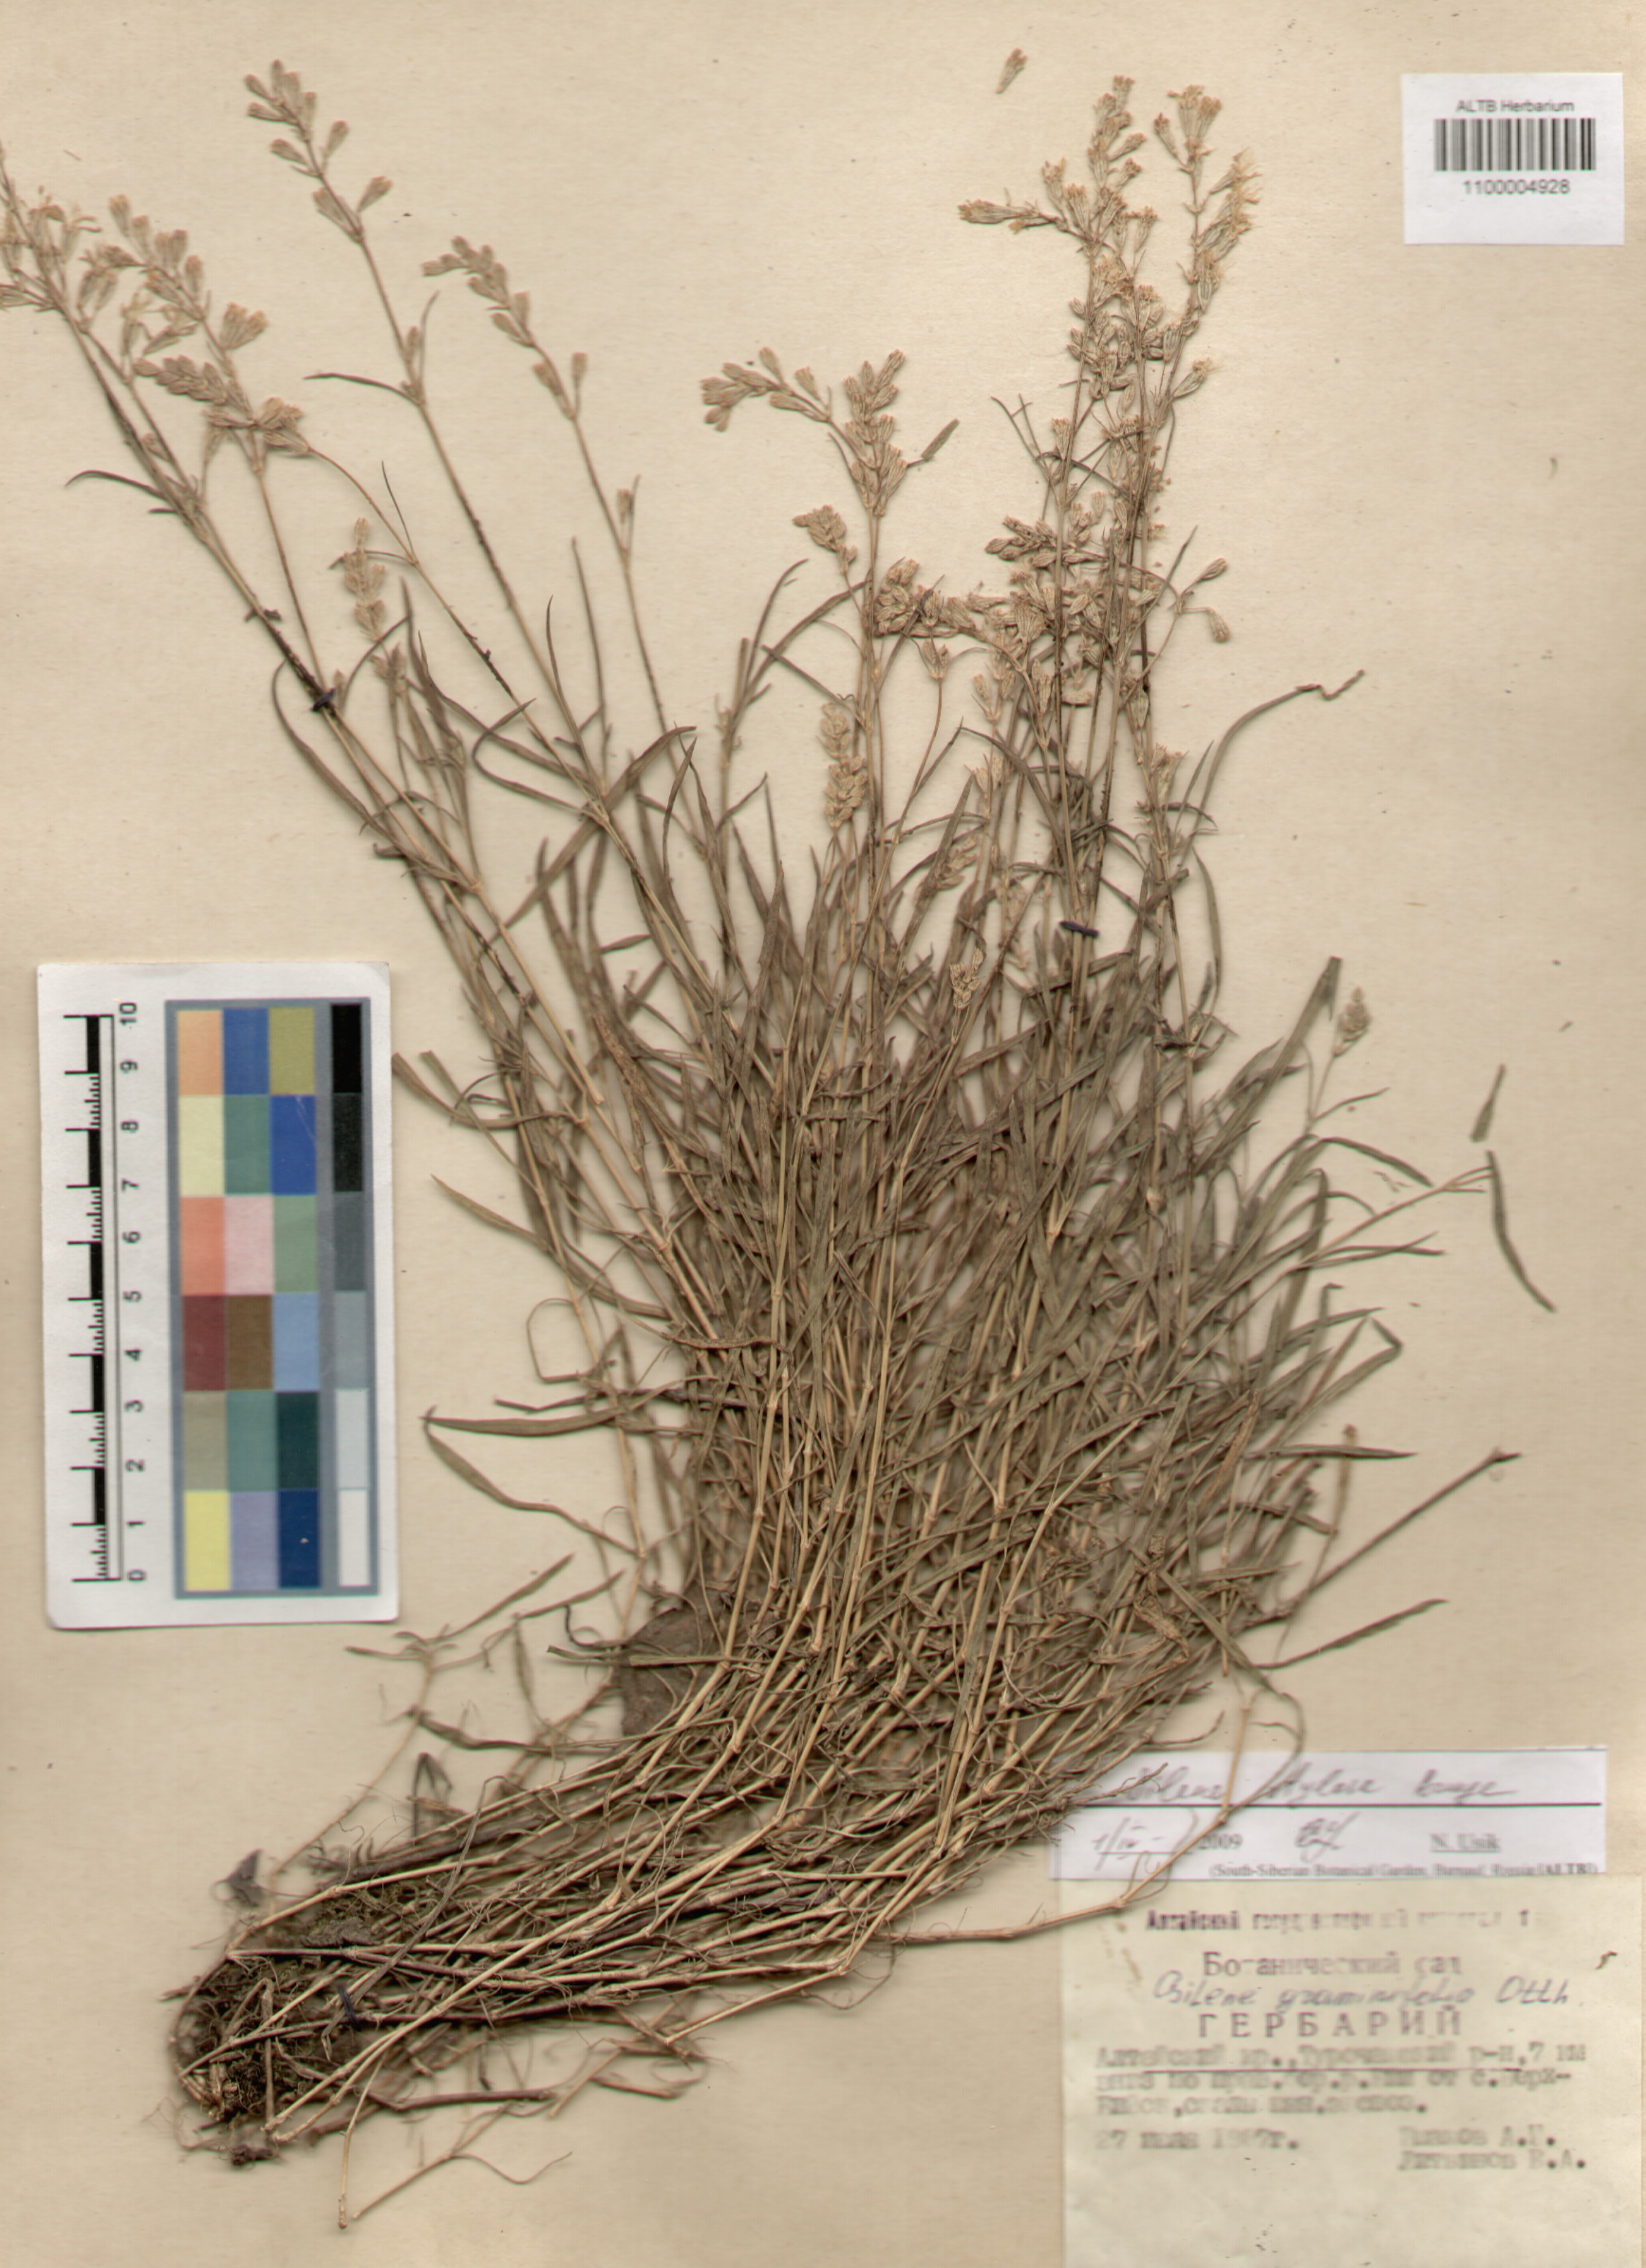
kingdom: Plantae
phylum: Tracheophyta
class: Magnoliopsida
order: Caryophyllales
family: Caryophyllaceae
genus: Silene
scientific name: Silene graminifolia
